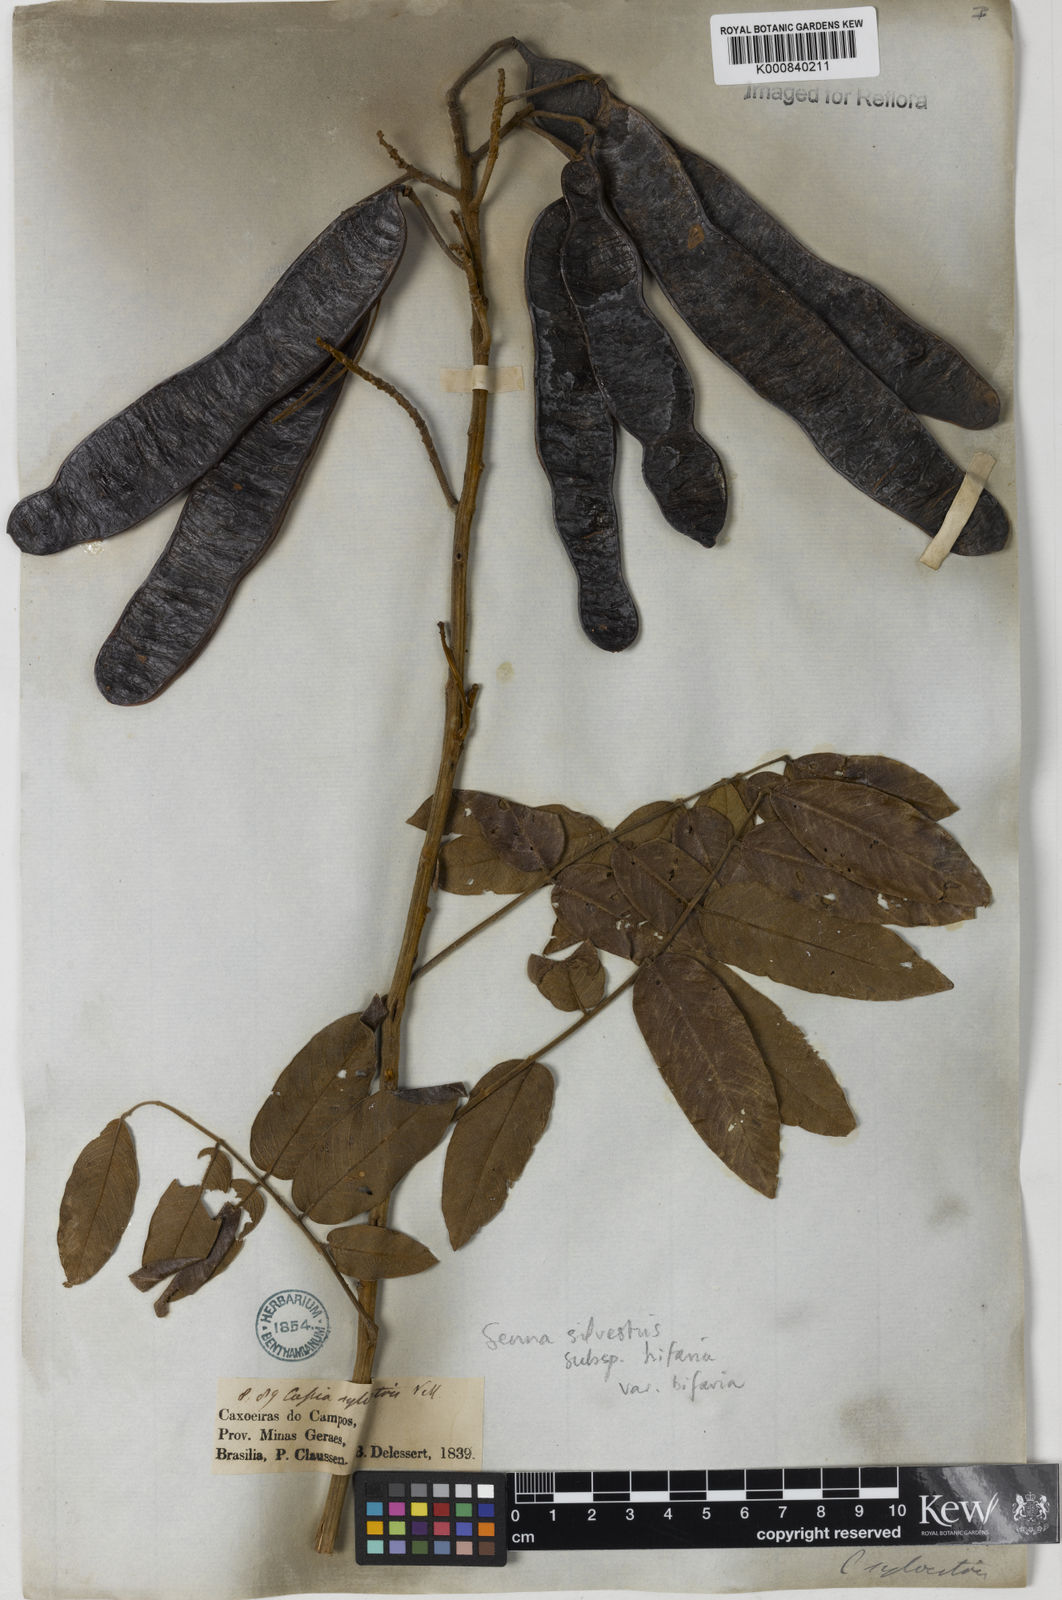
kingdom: Plantae
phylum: Tracheophyta
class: Magnoliopsida
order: Fabales
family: Fabaceae
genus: Senna
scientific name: Senna silvestris
